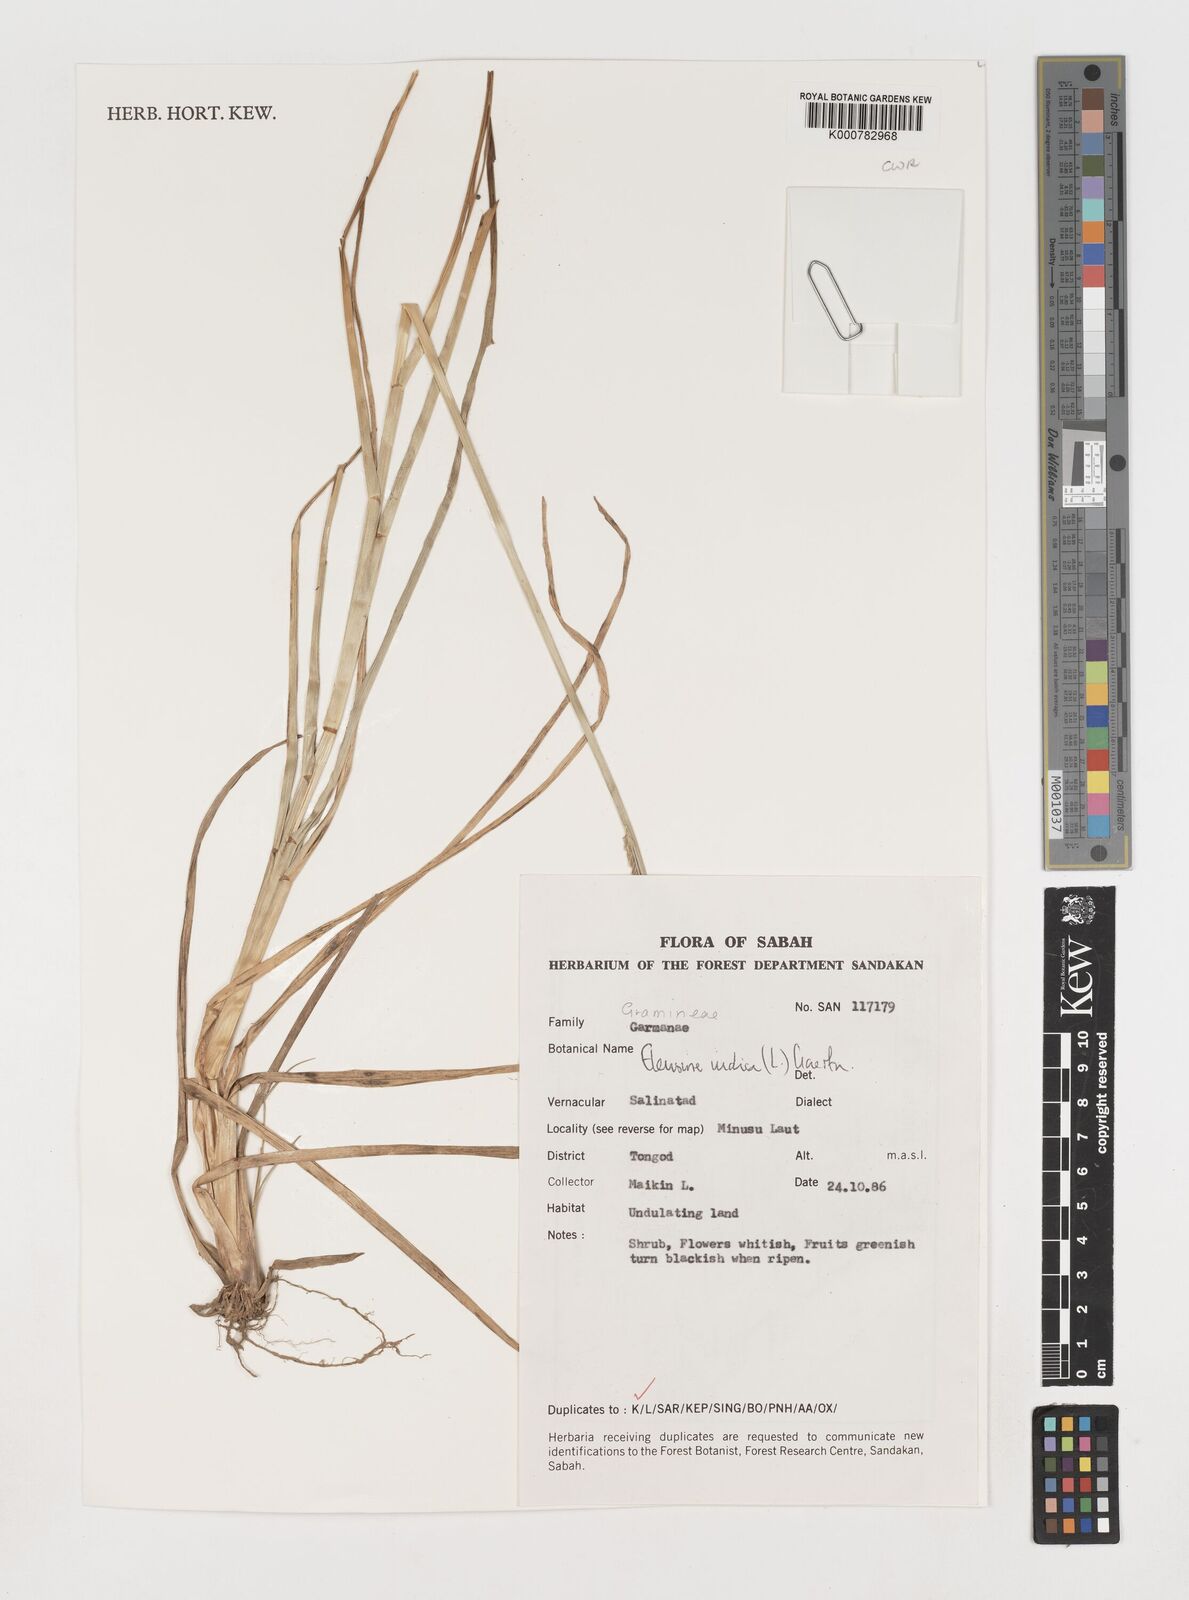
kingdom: Plantae
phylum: Tracheophyta
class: Liliopsida
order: Poales
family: Poaceae
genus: Eleusine
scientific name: Eleusine indica
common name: Yard-grass
